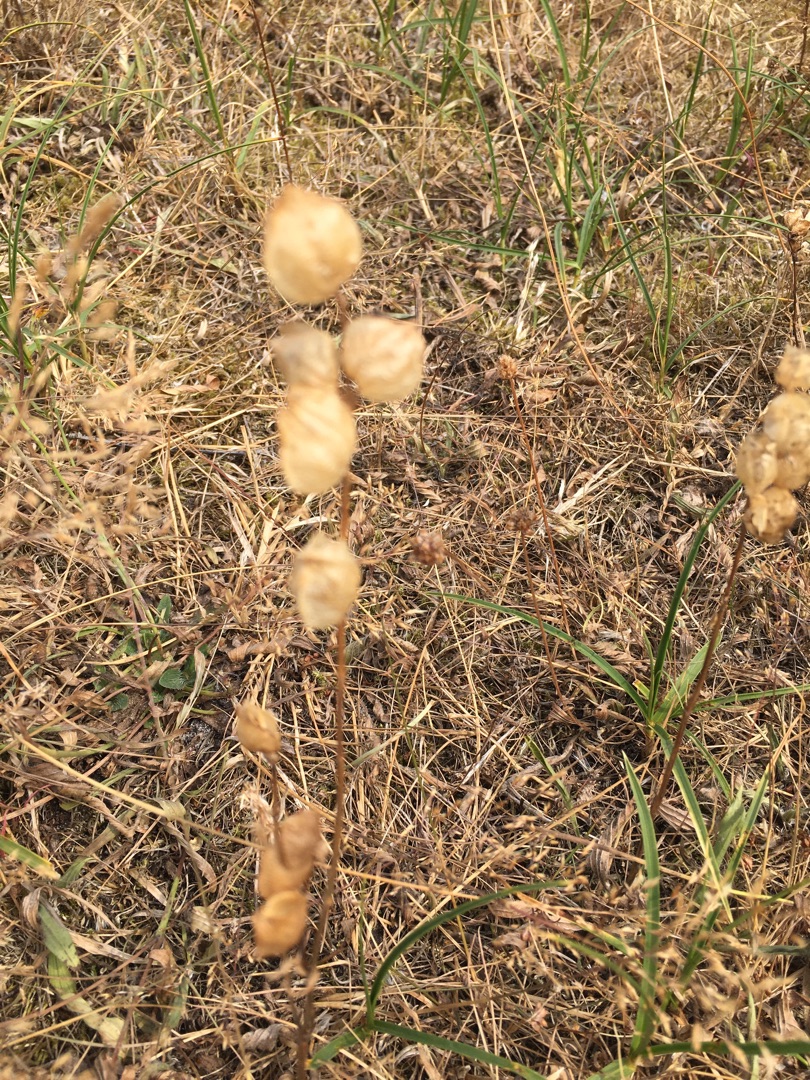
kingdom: Plantae
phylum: Tracheophyta
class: Magnoliopsida
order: Lamiales
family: Orobanchaceae
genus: Rhinanthus
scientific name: Rhinanthus
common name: Skjallerslægten
